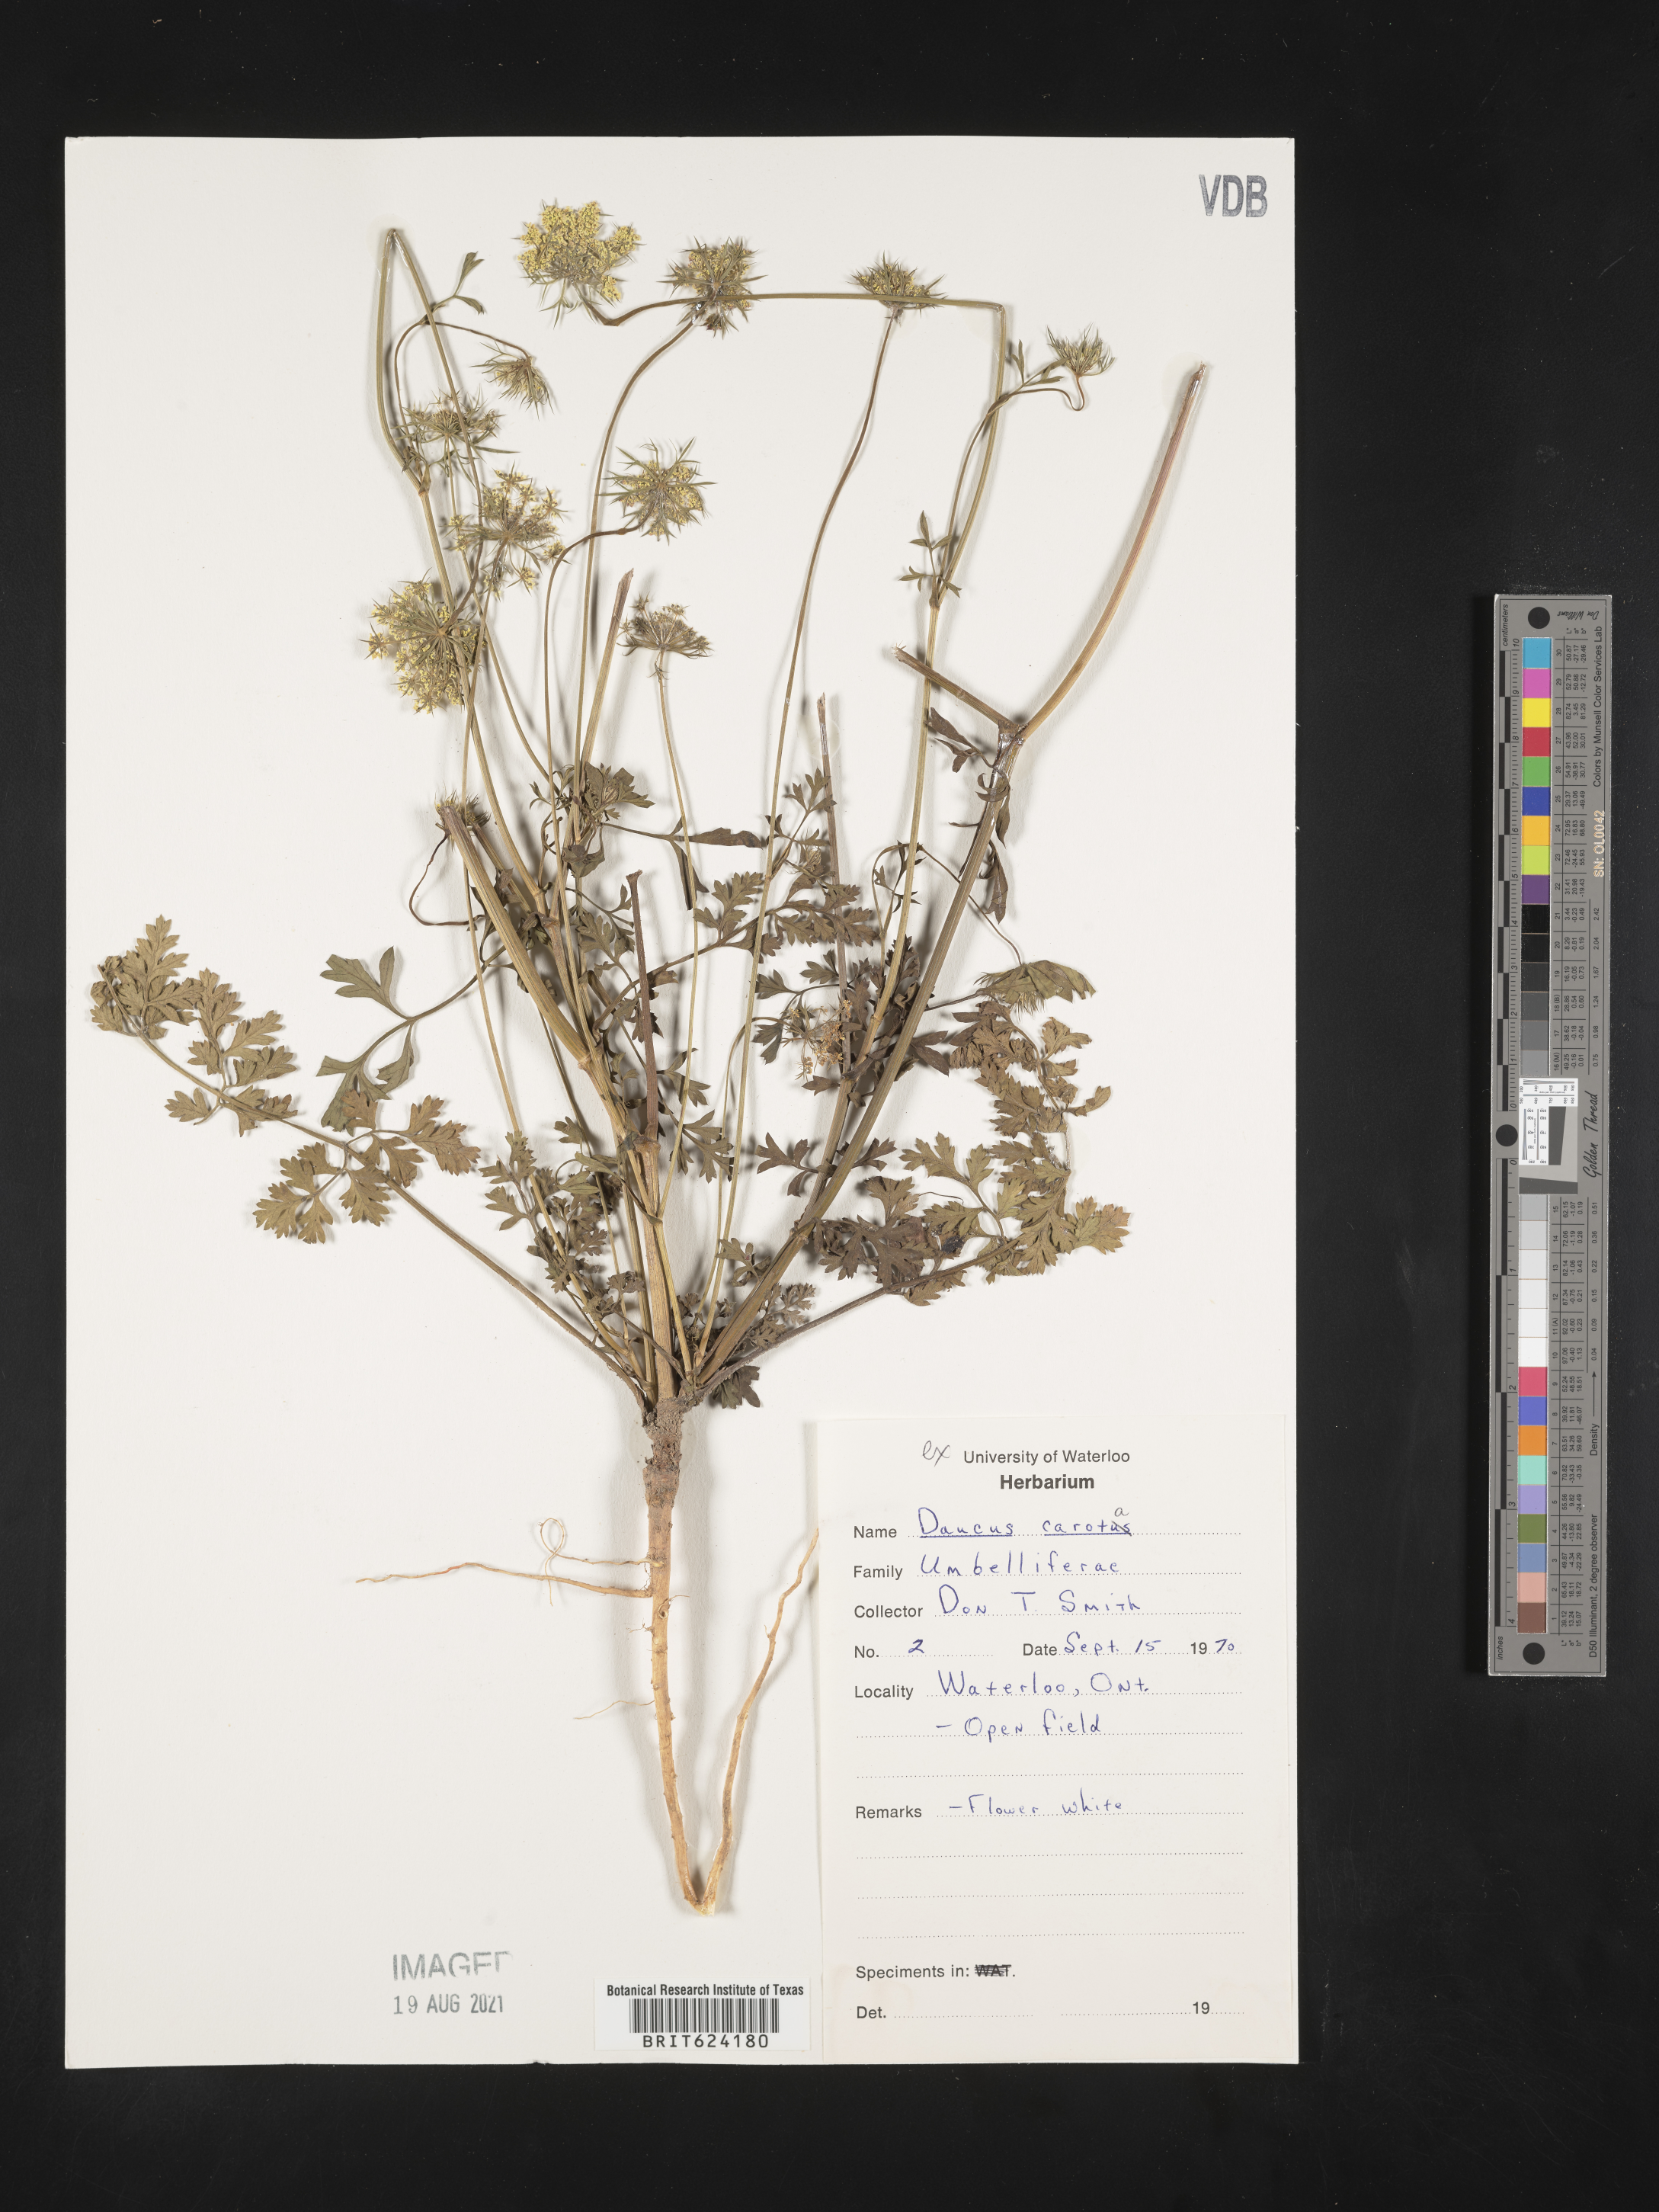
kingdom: Plantae
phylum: Tracheophyta
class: Magnoliopsida
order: Apiales
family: Apiaceae
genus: Daucus
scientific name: Daucus
